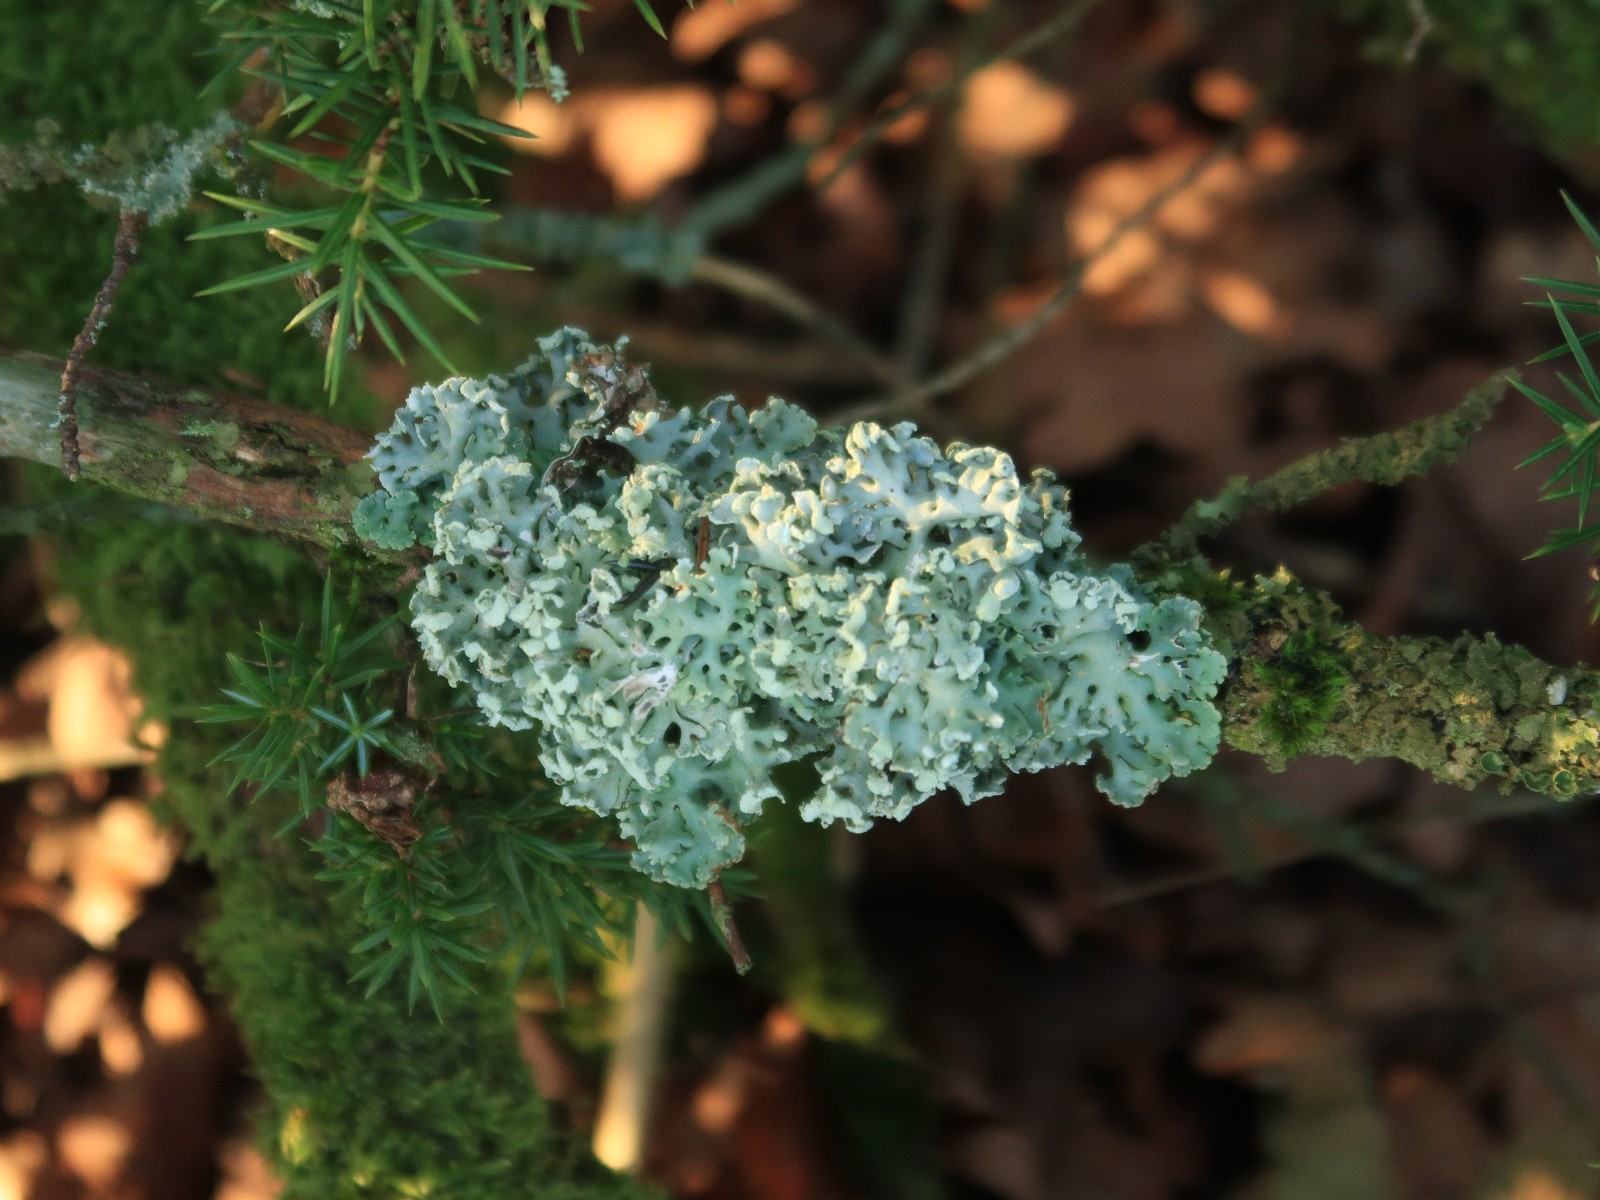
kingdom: Fungi
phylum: Ascomycota
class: Lecanoromycetes
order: Lecanorales
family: Parmeliaceae
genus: Hypogymnia
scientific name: Hypogymnia physodes
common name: almindelig kvistlav
